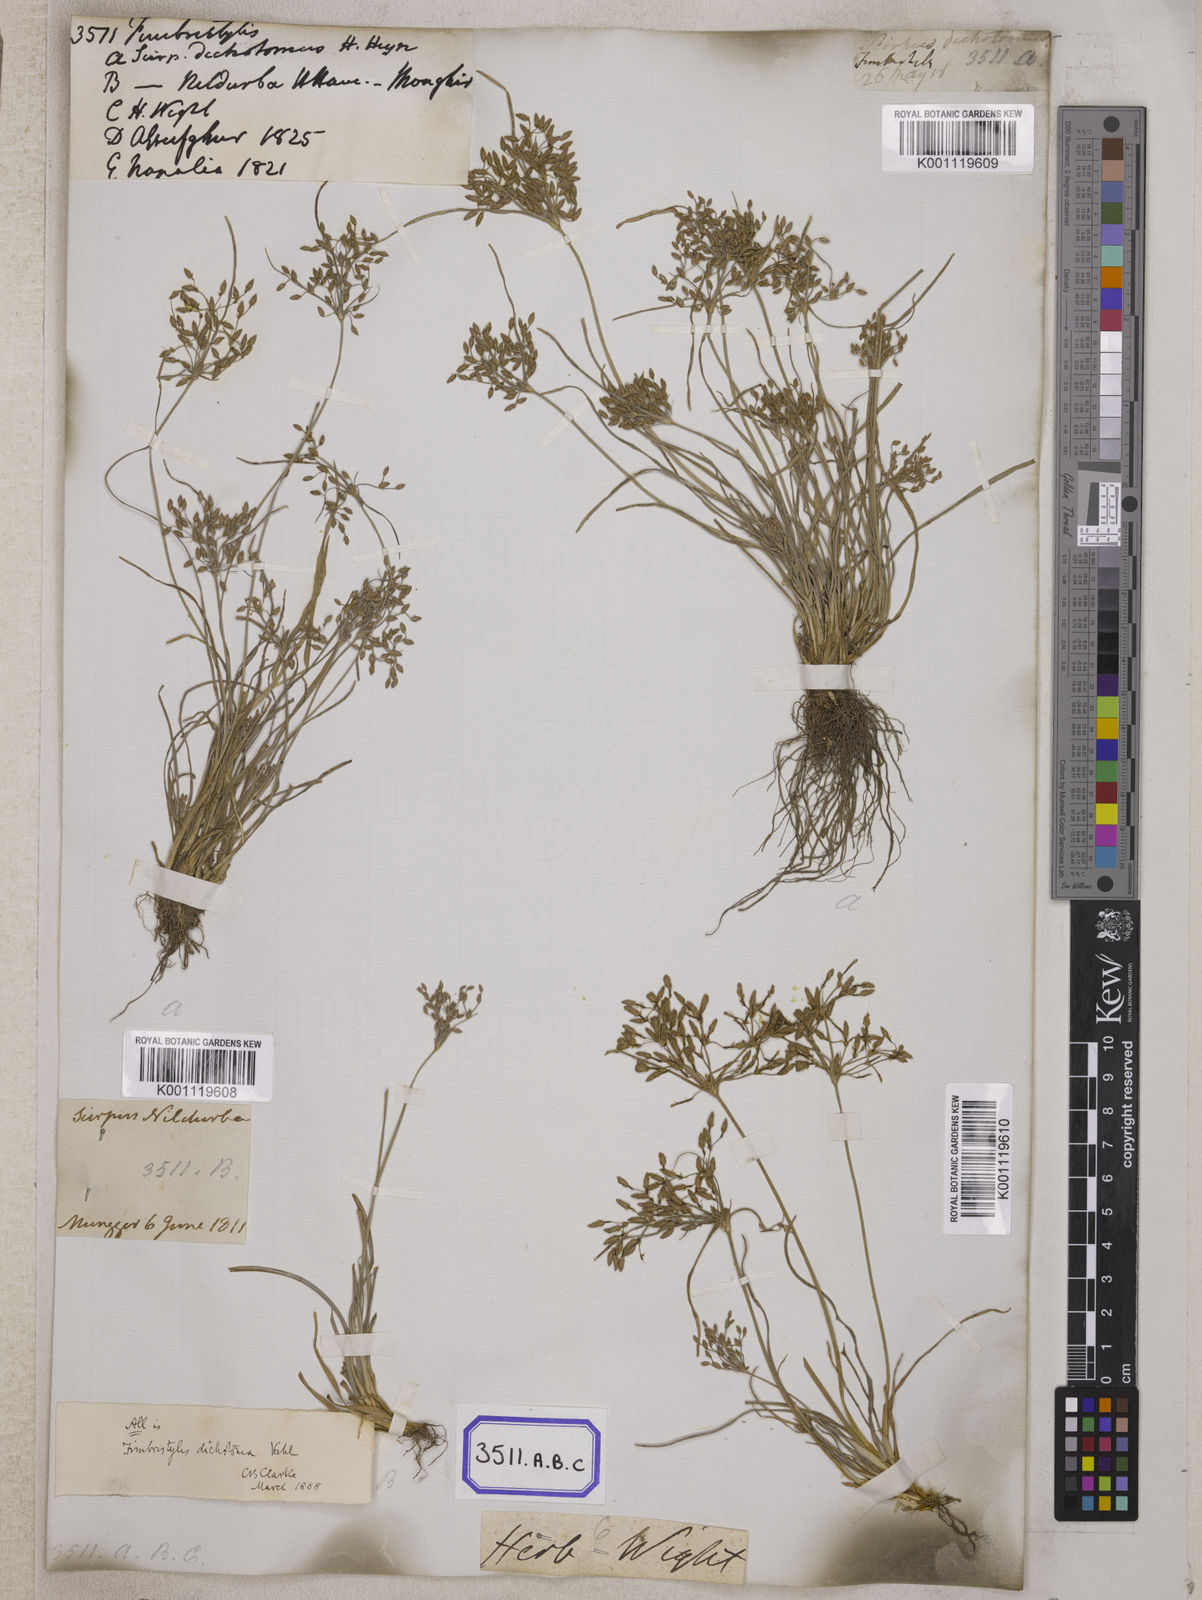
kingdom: Plantae
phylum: Tracheophyta
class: Liliopsida
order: Poales
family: Cyperaceae
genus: Fimbristylis
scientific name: Fimbristylis
